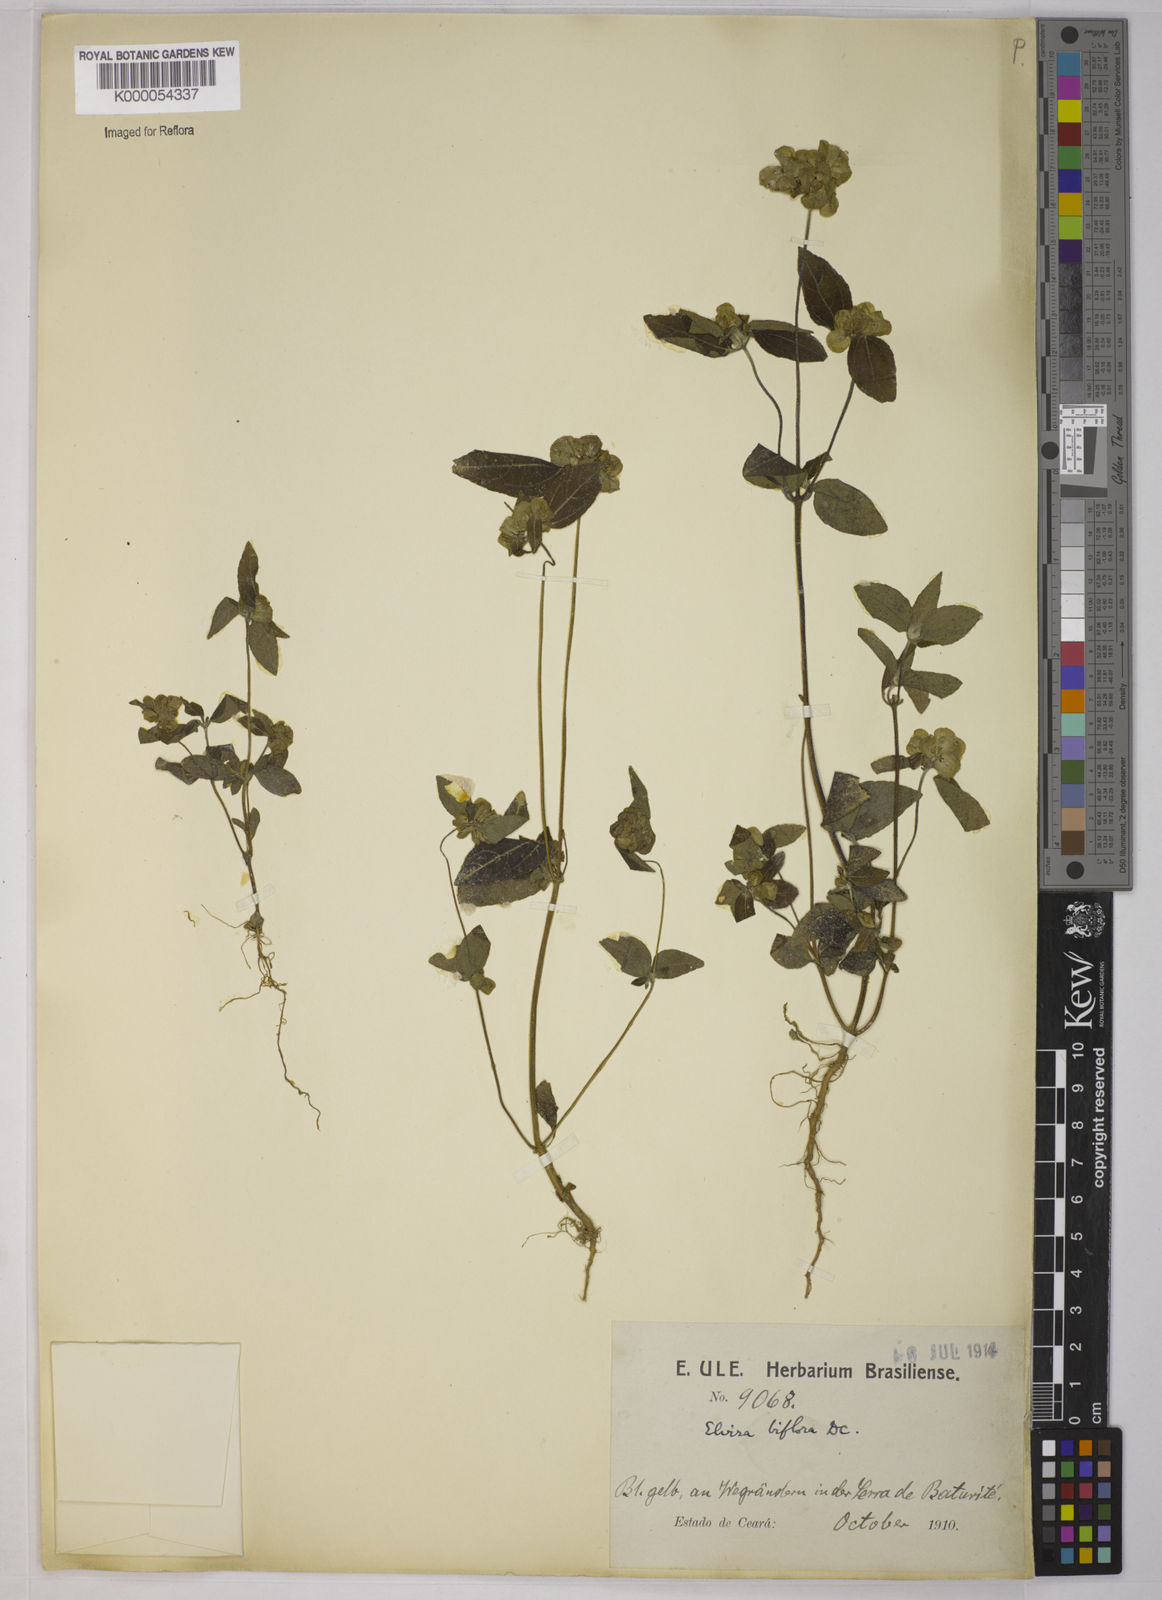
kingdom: Plantae
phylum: Tracheophyta
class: Magnoliopsida
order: Asterales
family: Asteraceae
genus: Delilia
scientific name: Delilia biflora
